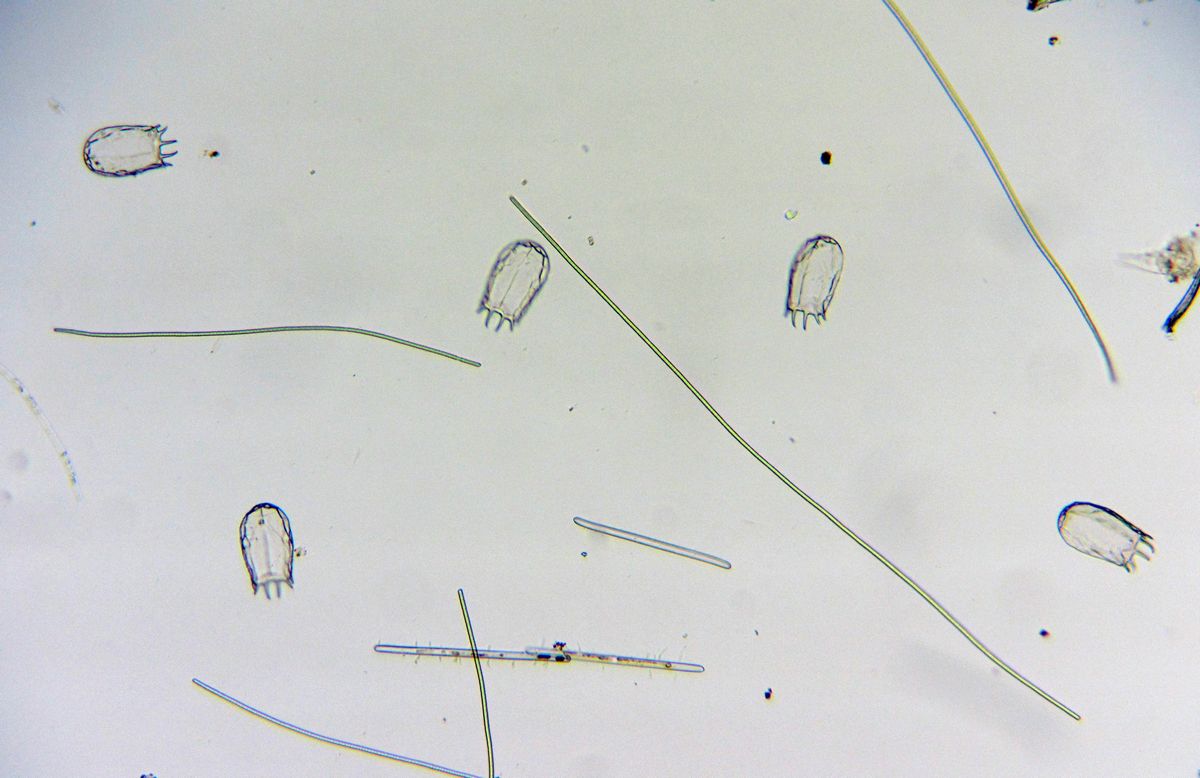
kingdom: Animalia
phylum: Rotifera
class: Eurotatoria
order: Ploima
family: Brachionidae
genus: Keratella
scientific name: Keratella cruciformis
